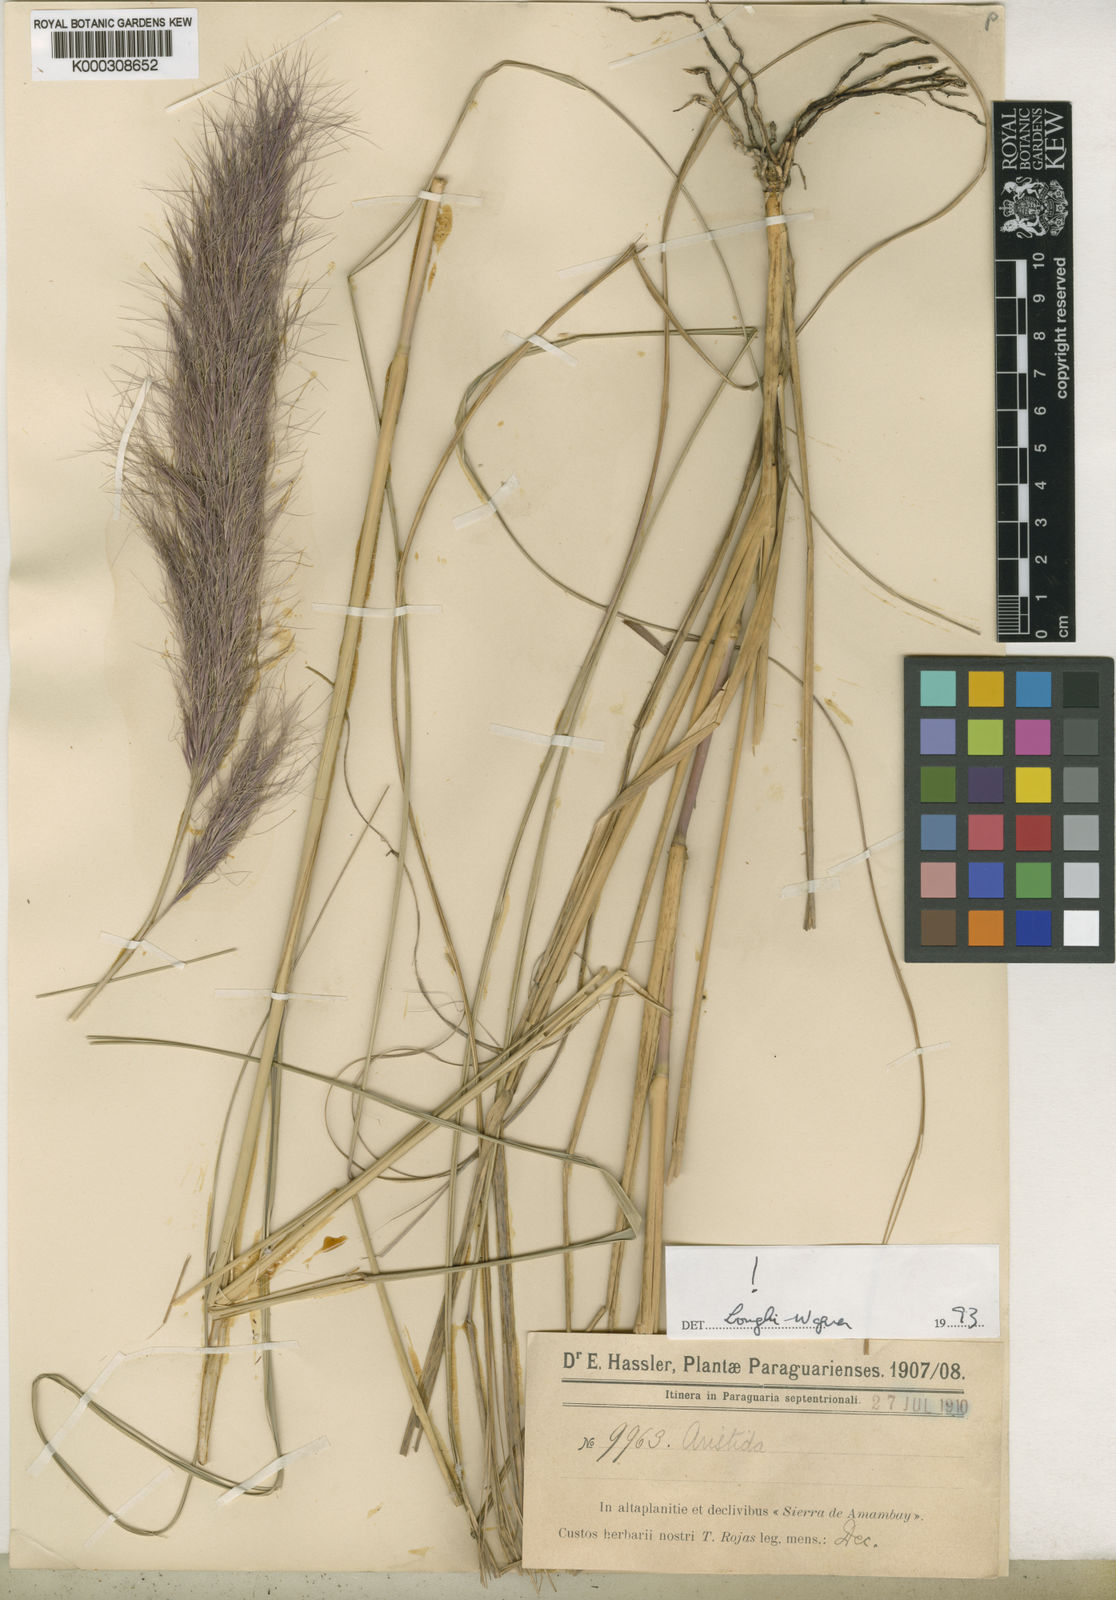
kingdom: Plantae
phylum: Tracheophyta
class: Liliopsida
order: Poales
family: Poaceae
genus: Aristida
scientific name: Aristida oligospira
